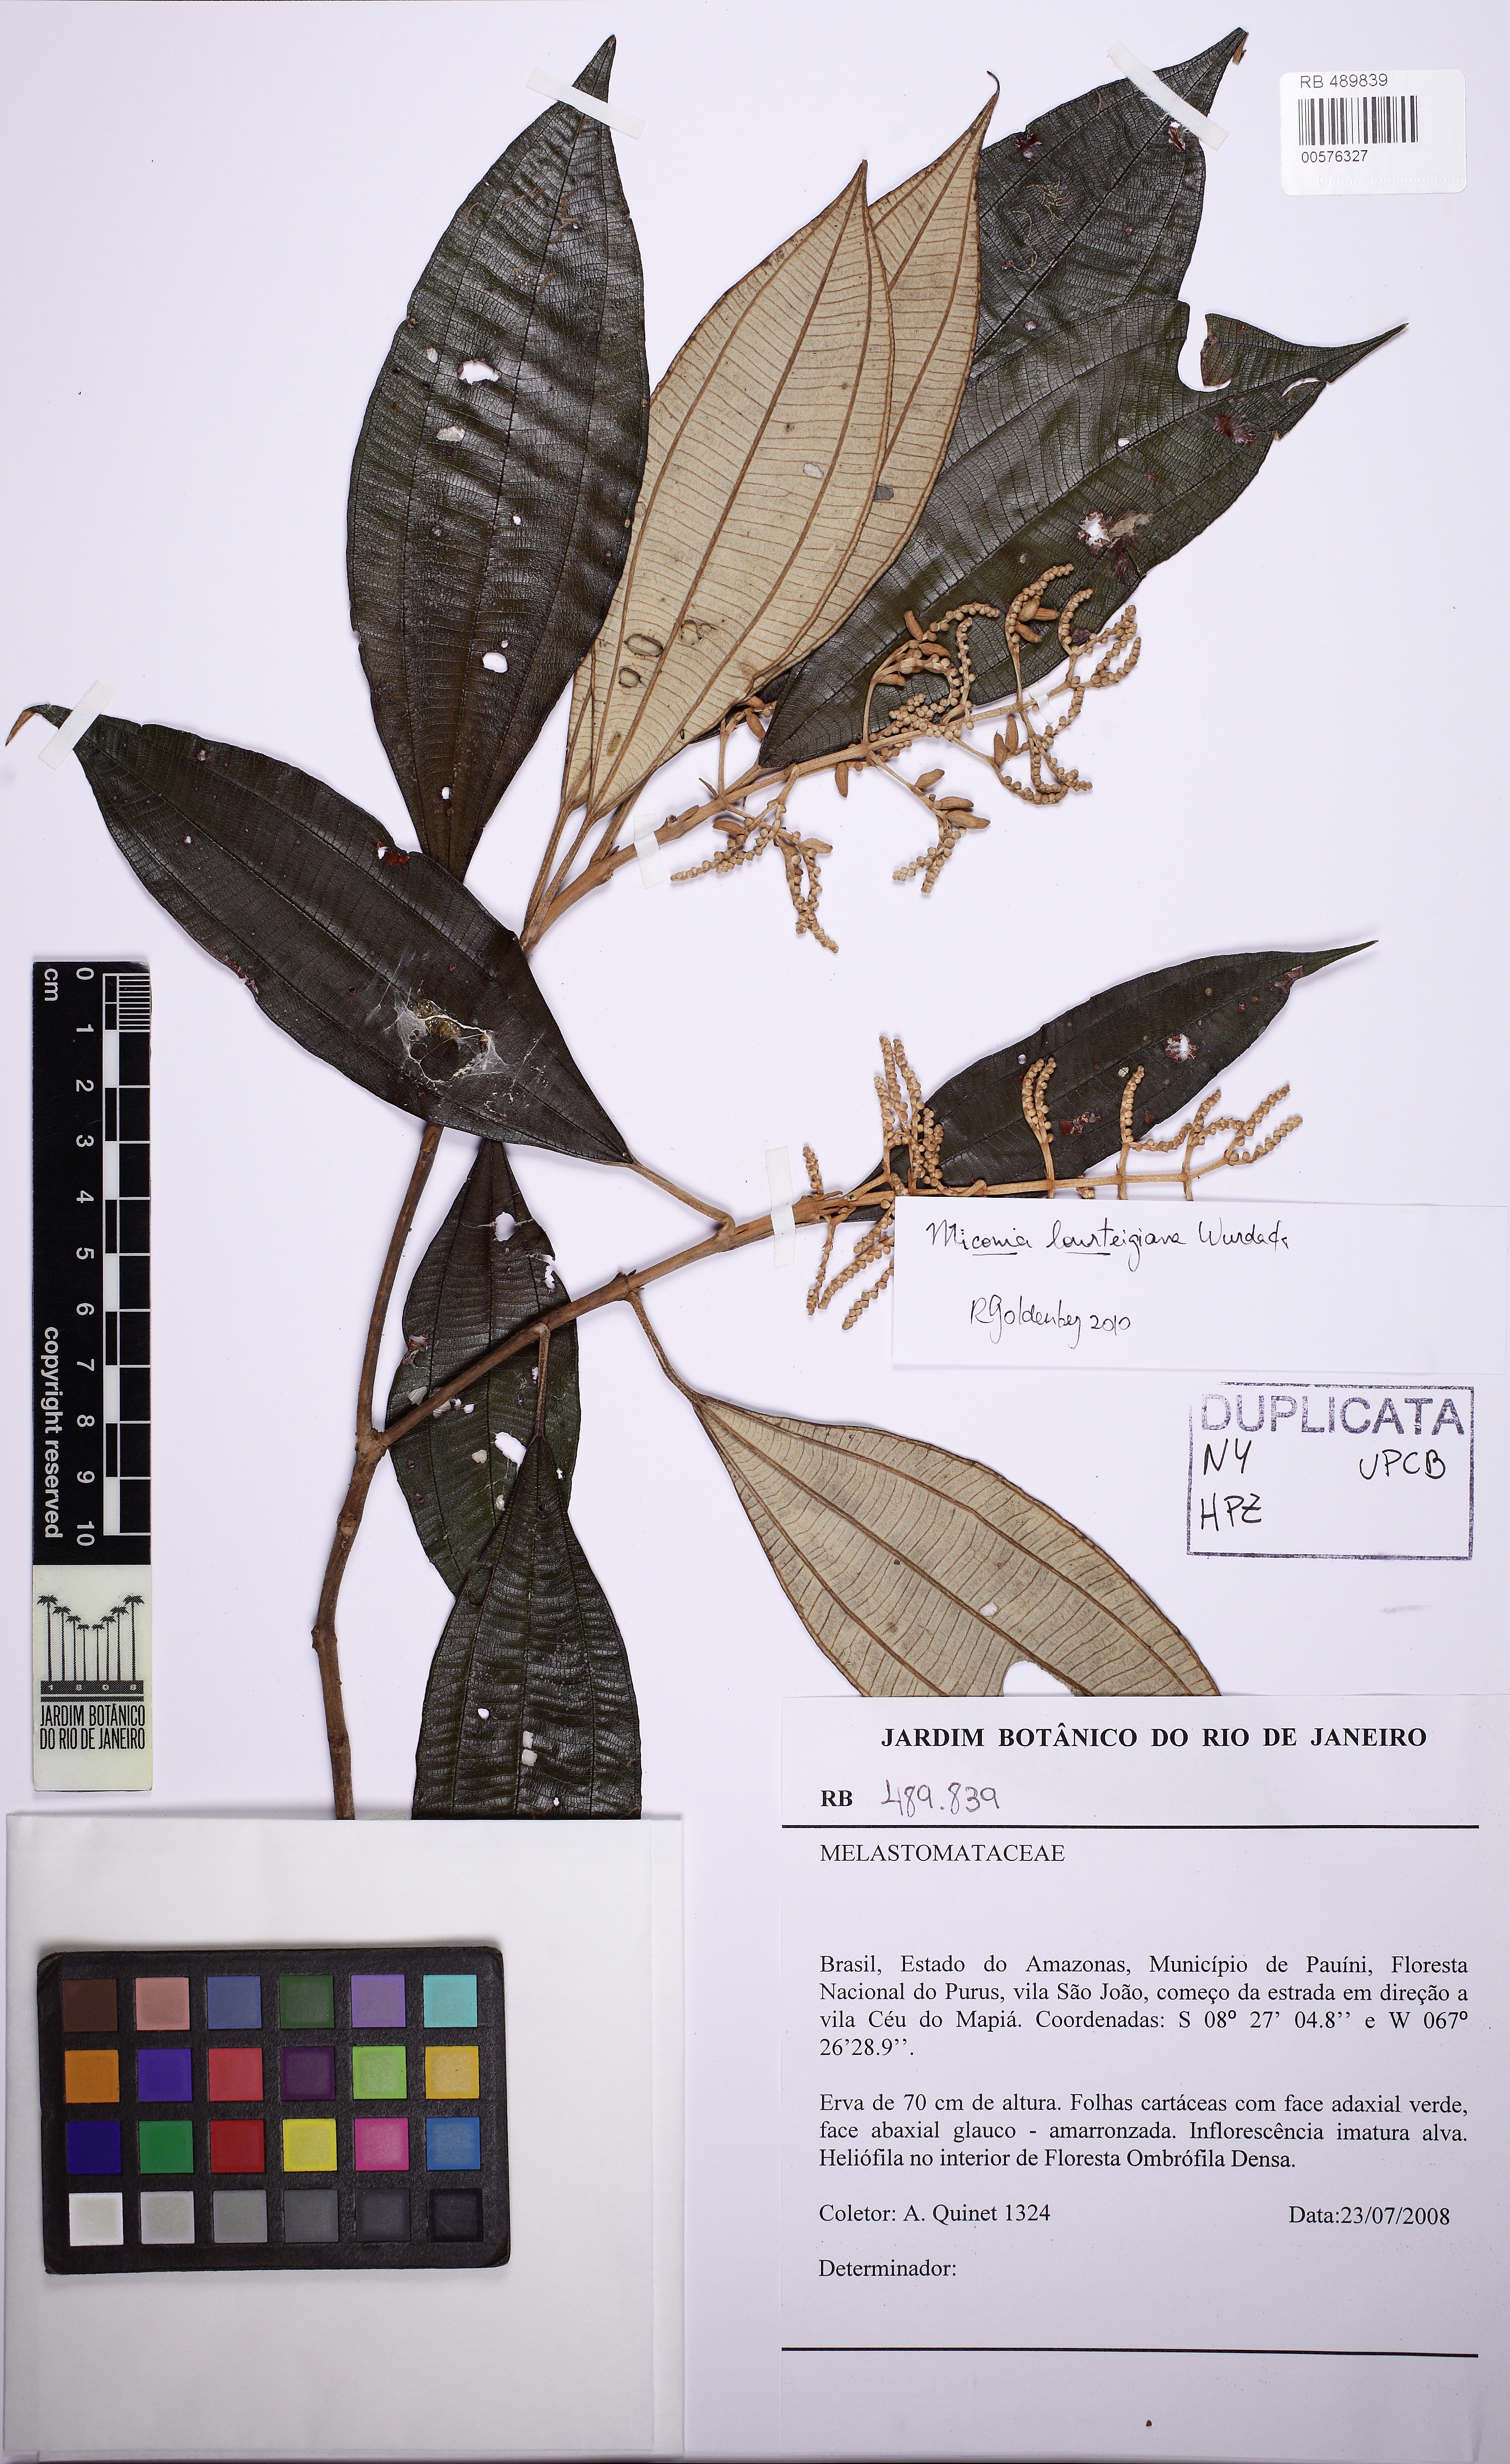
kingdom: Plantae
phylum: Tracheophyta
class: Magnoliopsida
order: Myrtales
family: Melastomataceae
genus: Miconia
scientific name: Miconia lourteigiana
